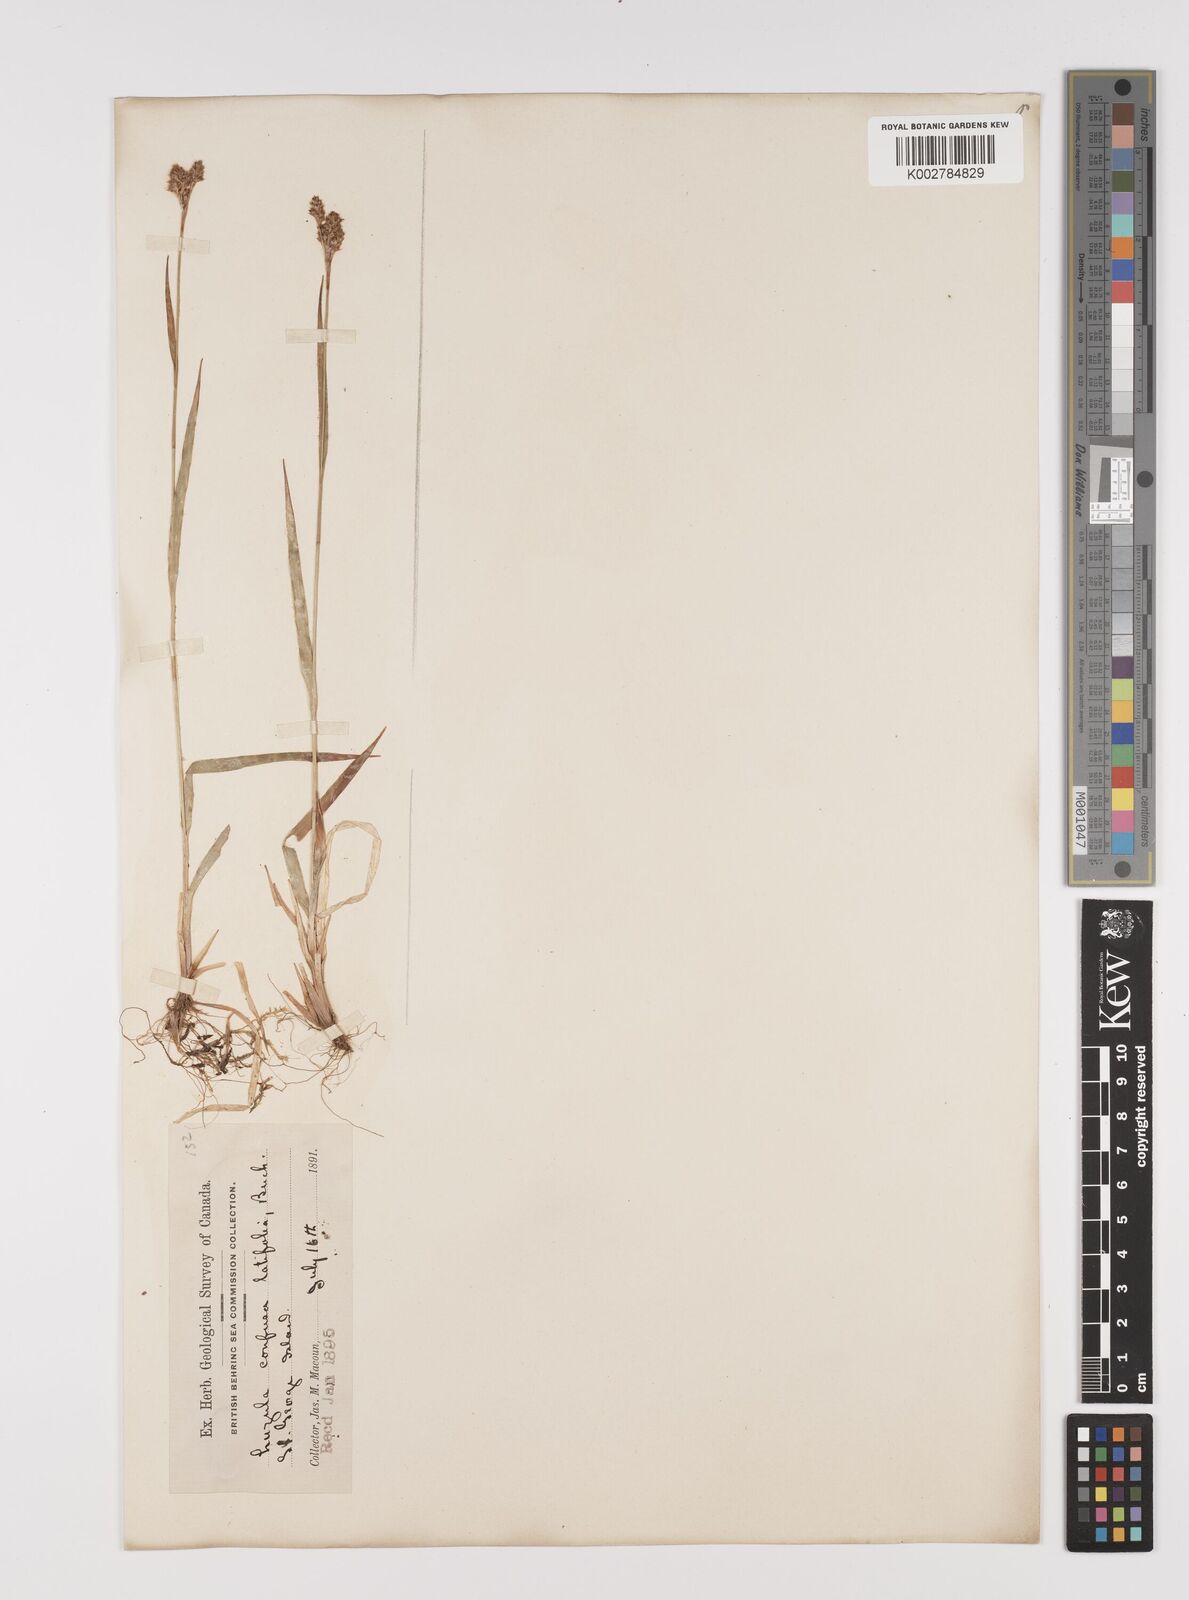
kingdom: Plantae
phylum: Tracheophyta
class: Liliopsida
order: Poales
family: Juncaceae
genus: Luzula
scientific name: Luzula confusa
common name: Northern wood rush
